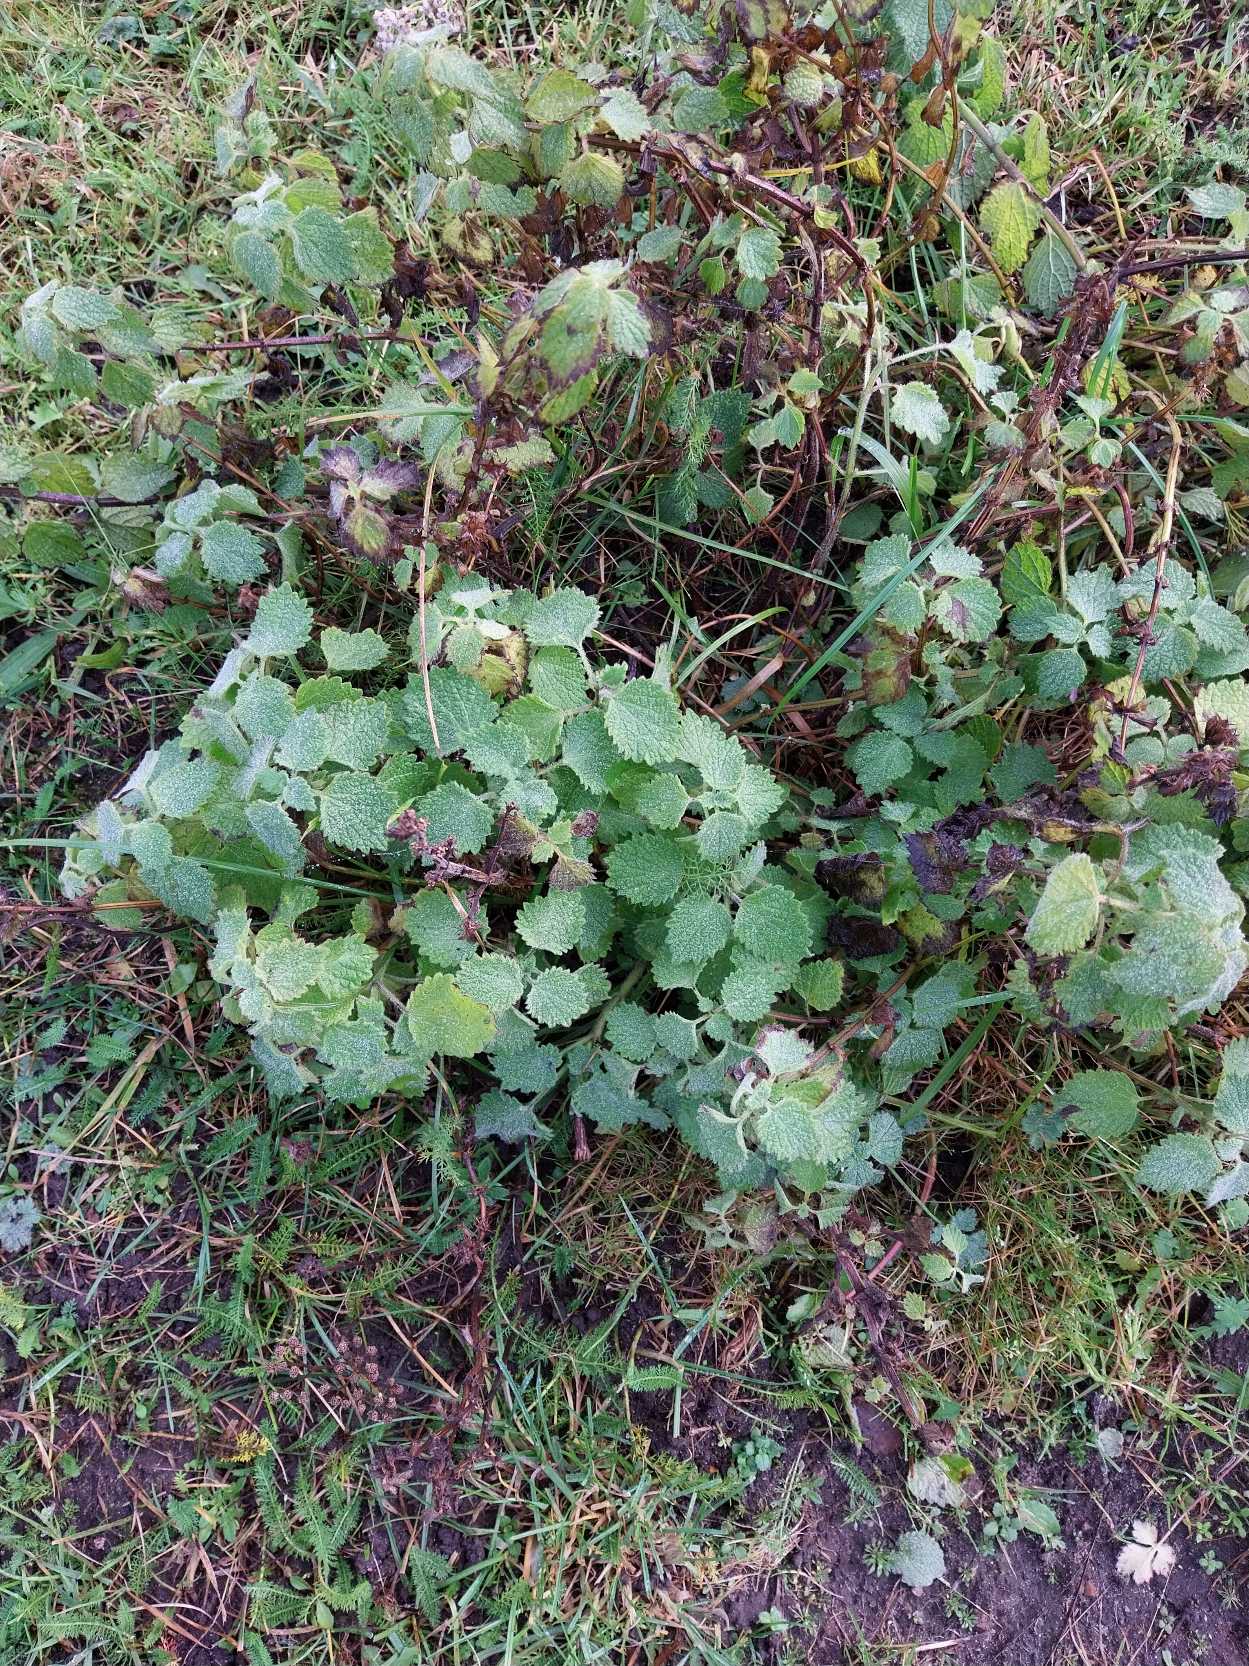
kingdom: Plantae
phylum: Tracheophyta
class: Magnoliopsida
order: Lamiales
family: Lamiaceae
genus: Ballota
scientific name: Ballota nigra
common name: Tandbæger
